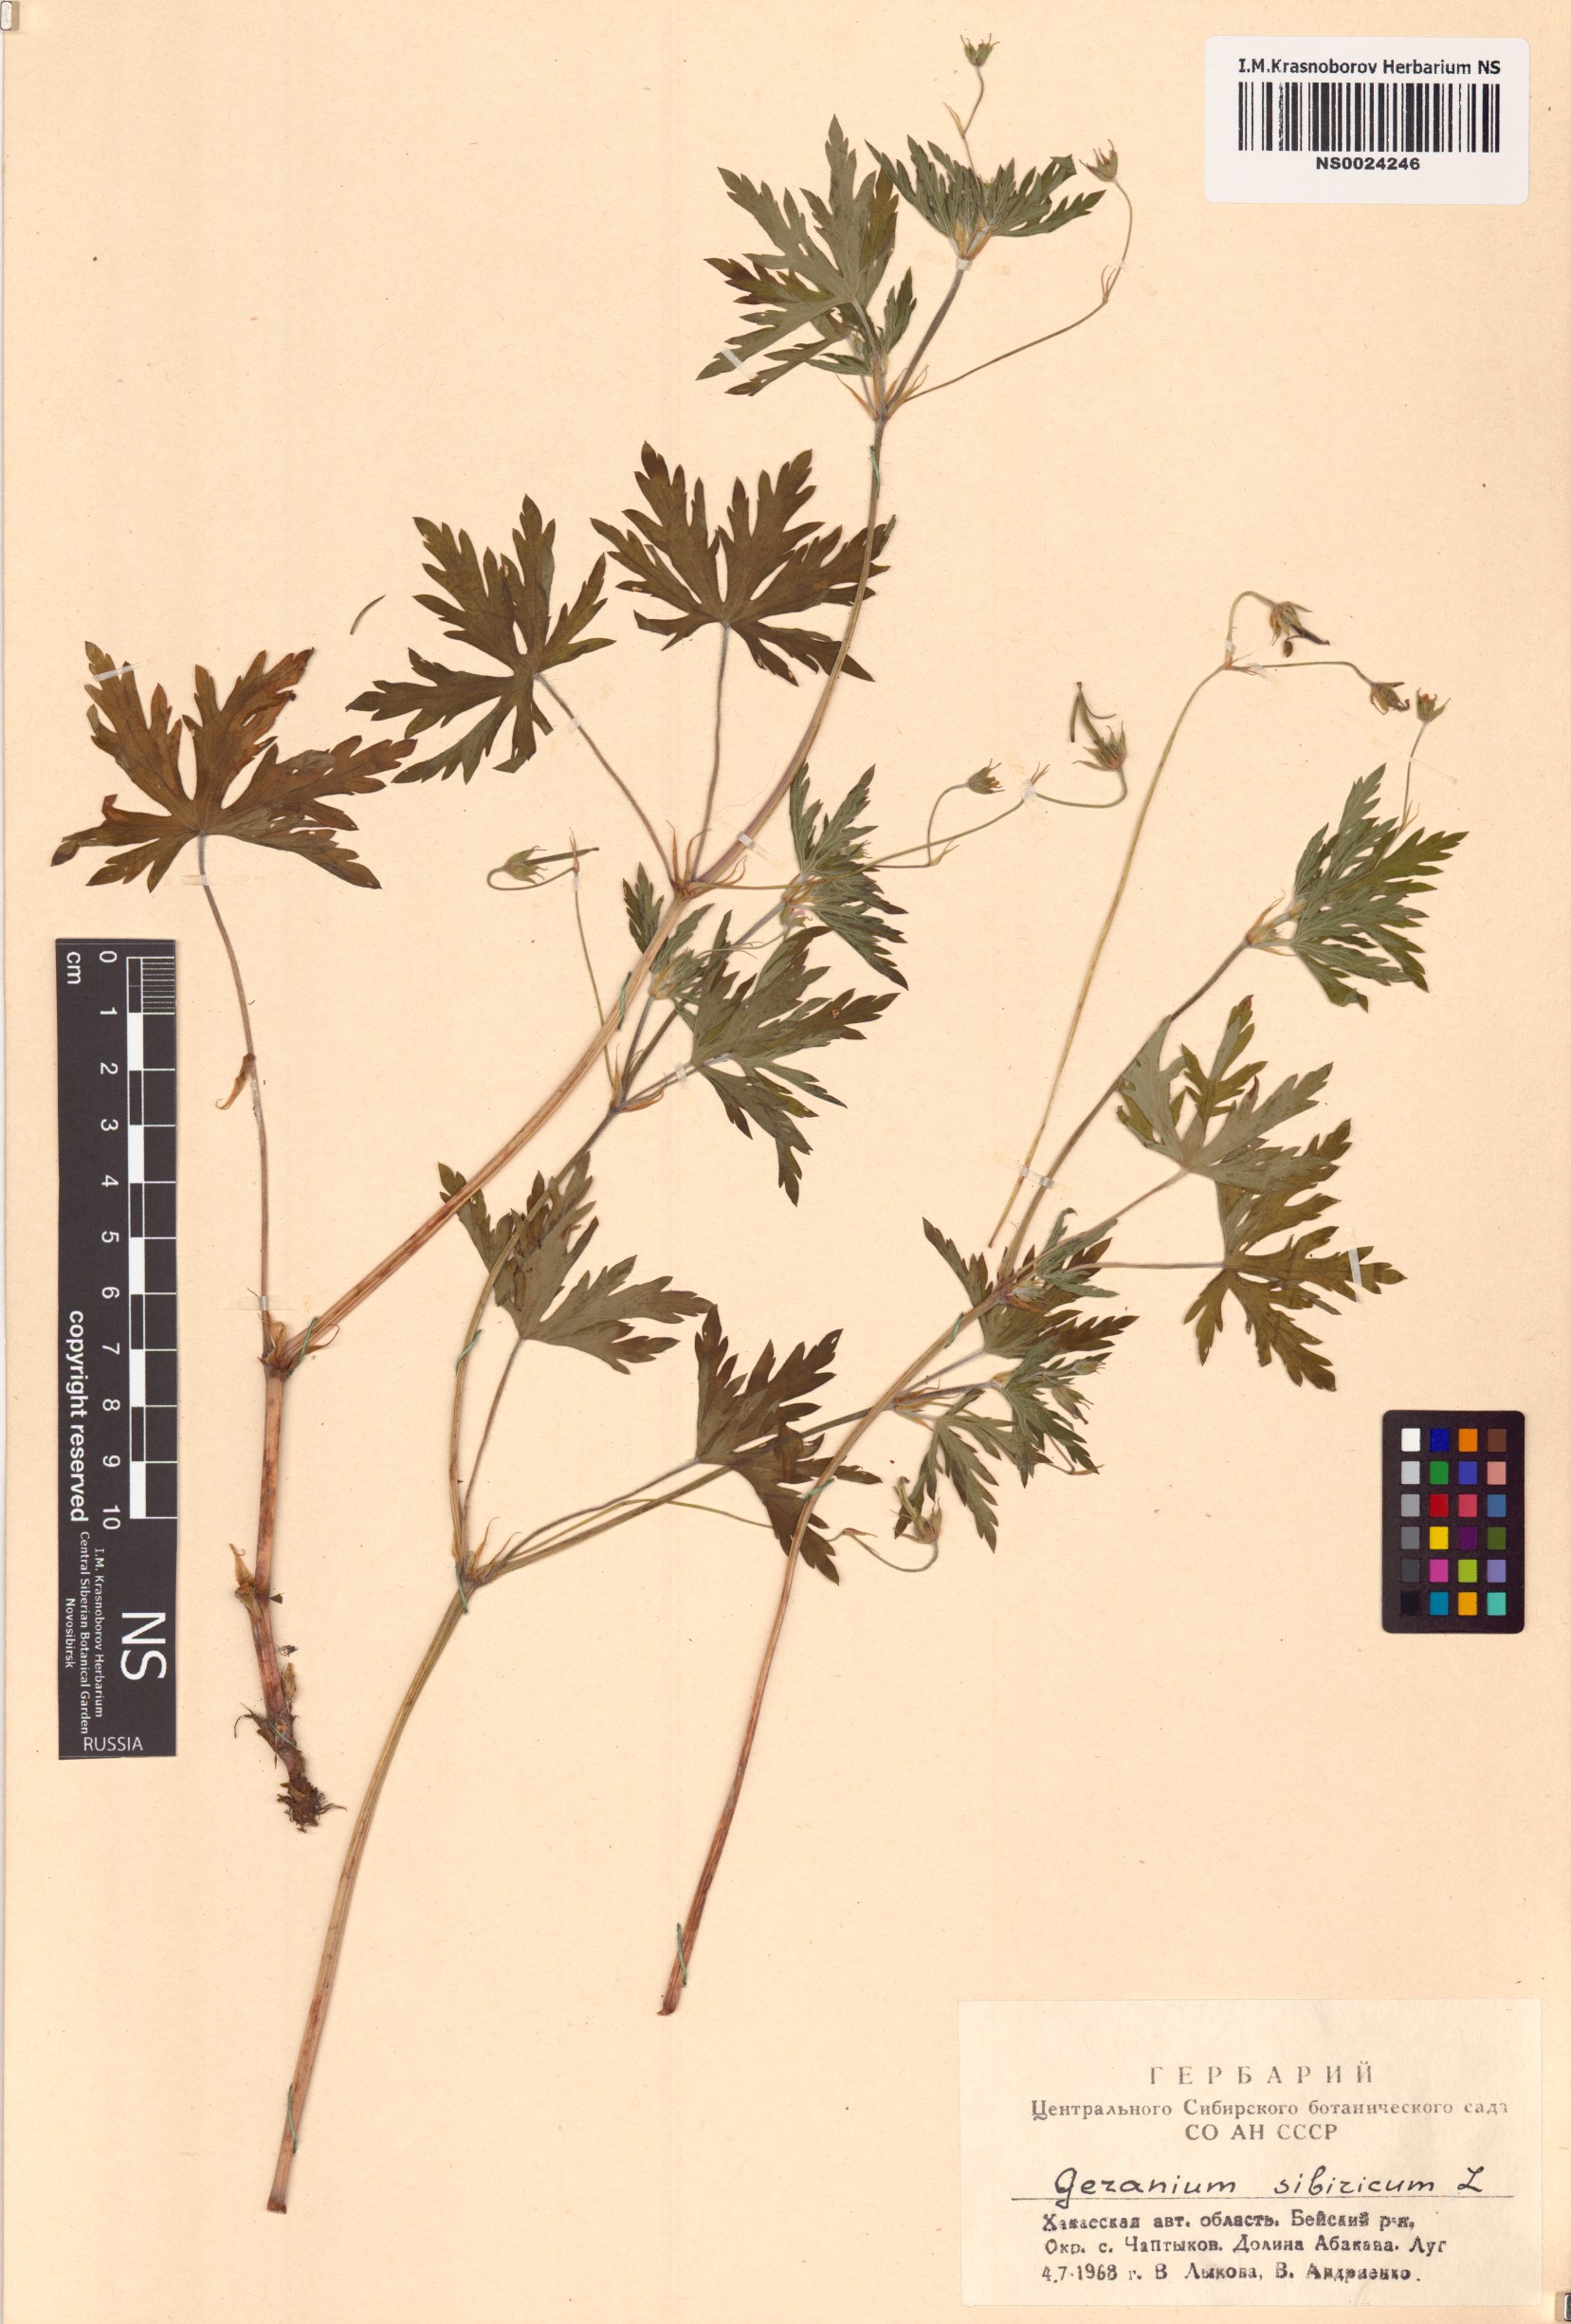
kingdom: Plantae
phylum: Tracheophyta
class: Magnoliopsida
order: Geraniales
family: Geraniaceae
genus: Geranium
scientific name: Geranium sibiricum
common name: Siberian crane's-bill
